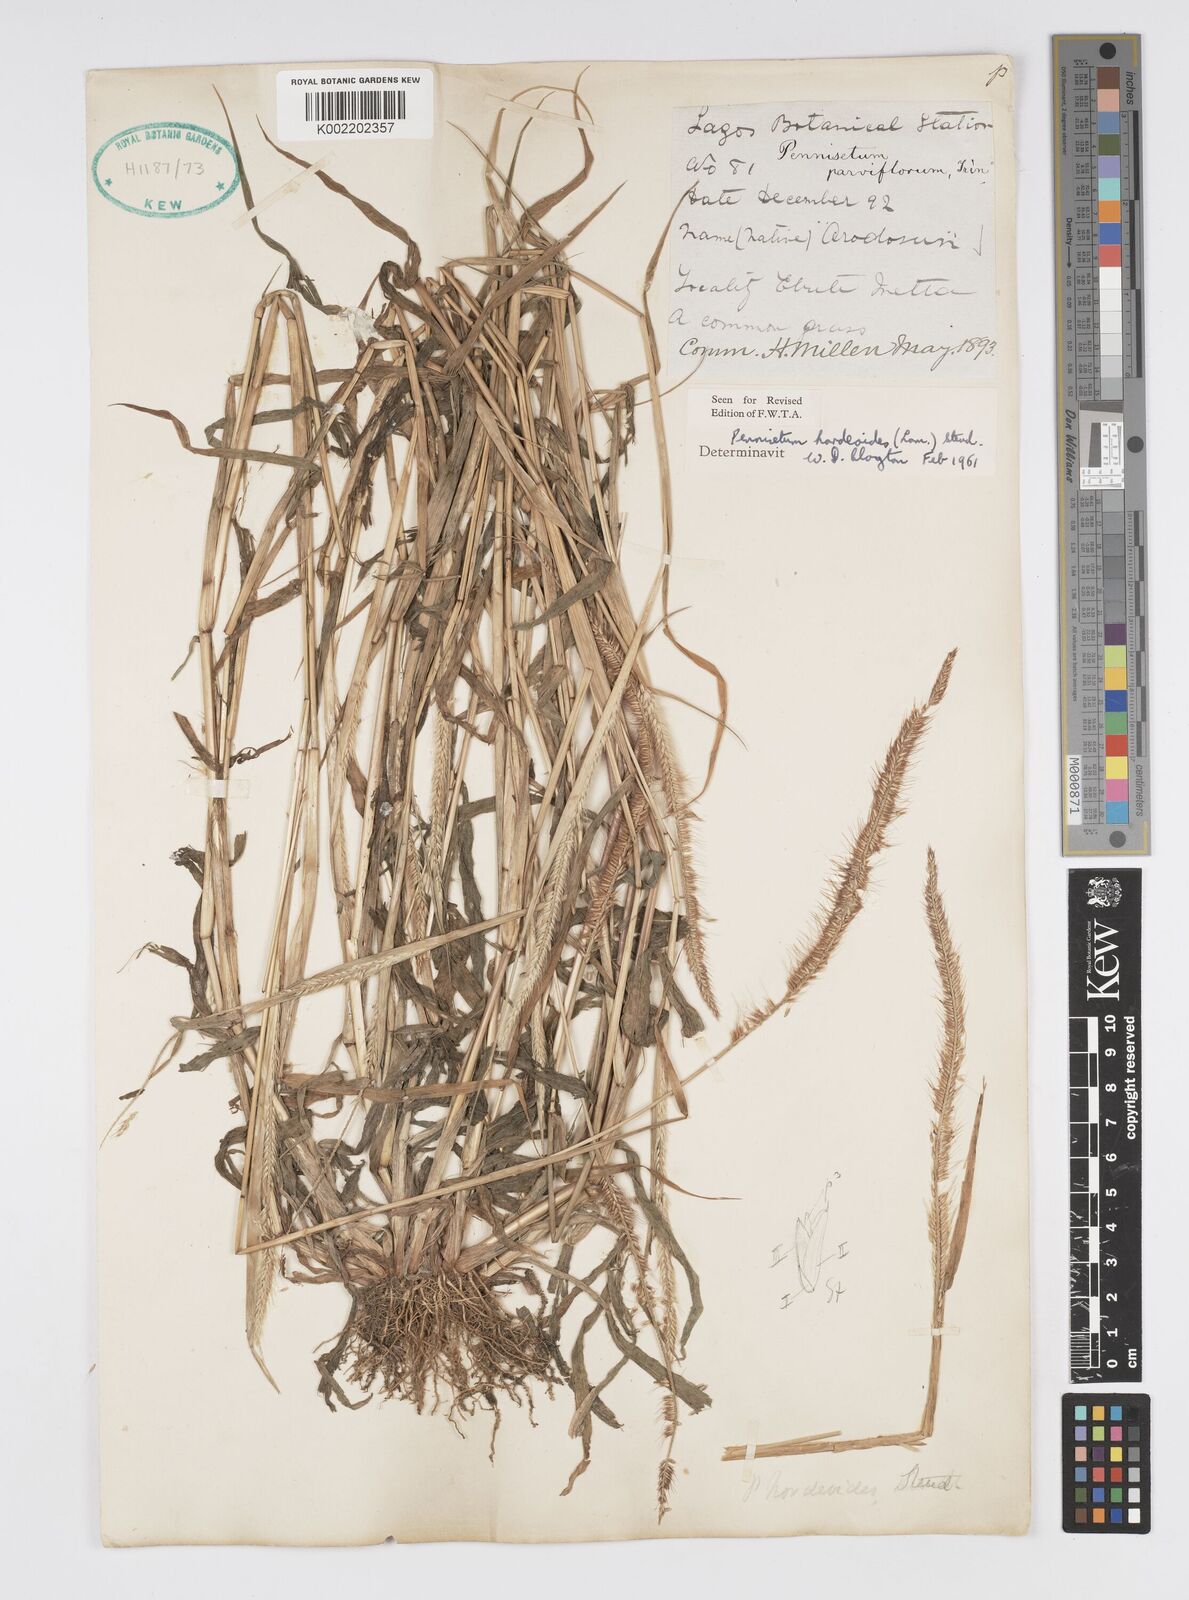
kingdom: Plantae
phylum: Tracheophyta
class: Liliopsida
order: Poales
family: Poaceae
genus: Cenchrus
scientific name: Cenchrus hordeoides
